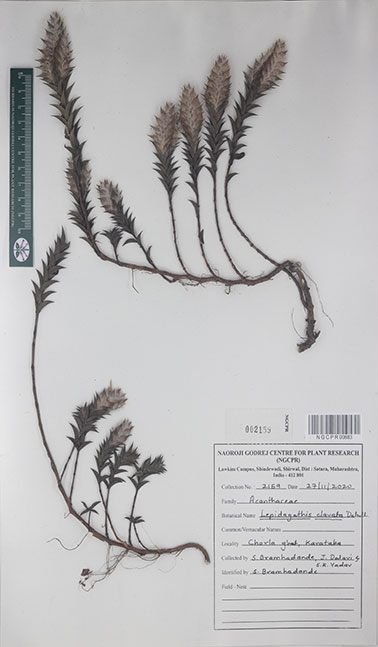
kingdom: Plantae
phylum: Tracheophyta
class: Magnoliopsida
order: Lamiales
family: Acanthaceae
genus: Lepidagathis
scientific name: Lepidagathis clavata
